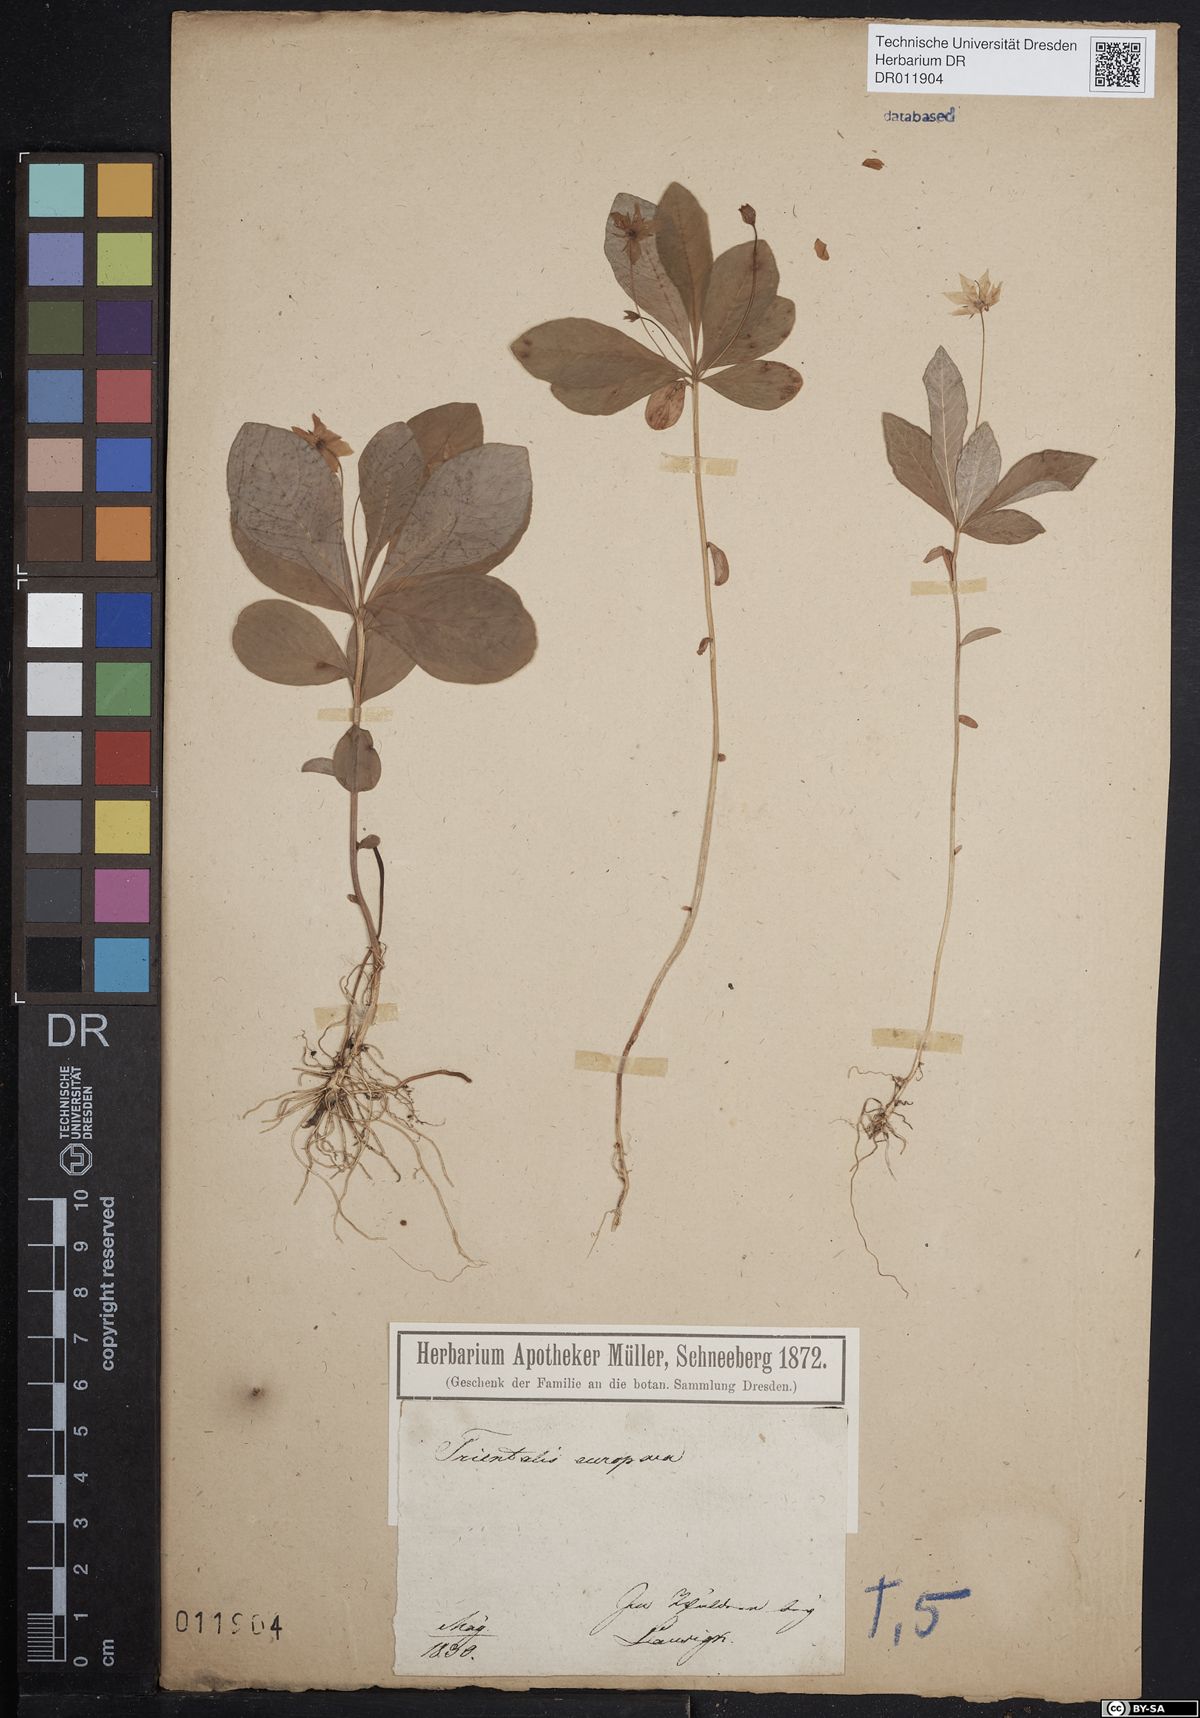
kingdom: Plantae
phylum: Tracheophyta
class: Magnoliopsida
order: Ericales
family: Primulaceae
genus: Lysimachia
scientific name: Lysimachia europaea
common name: Arctic starflower
